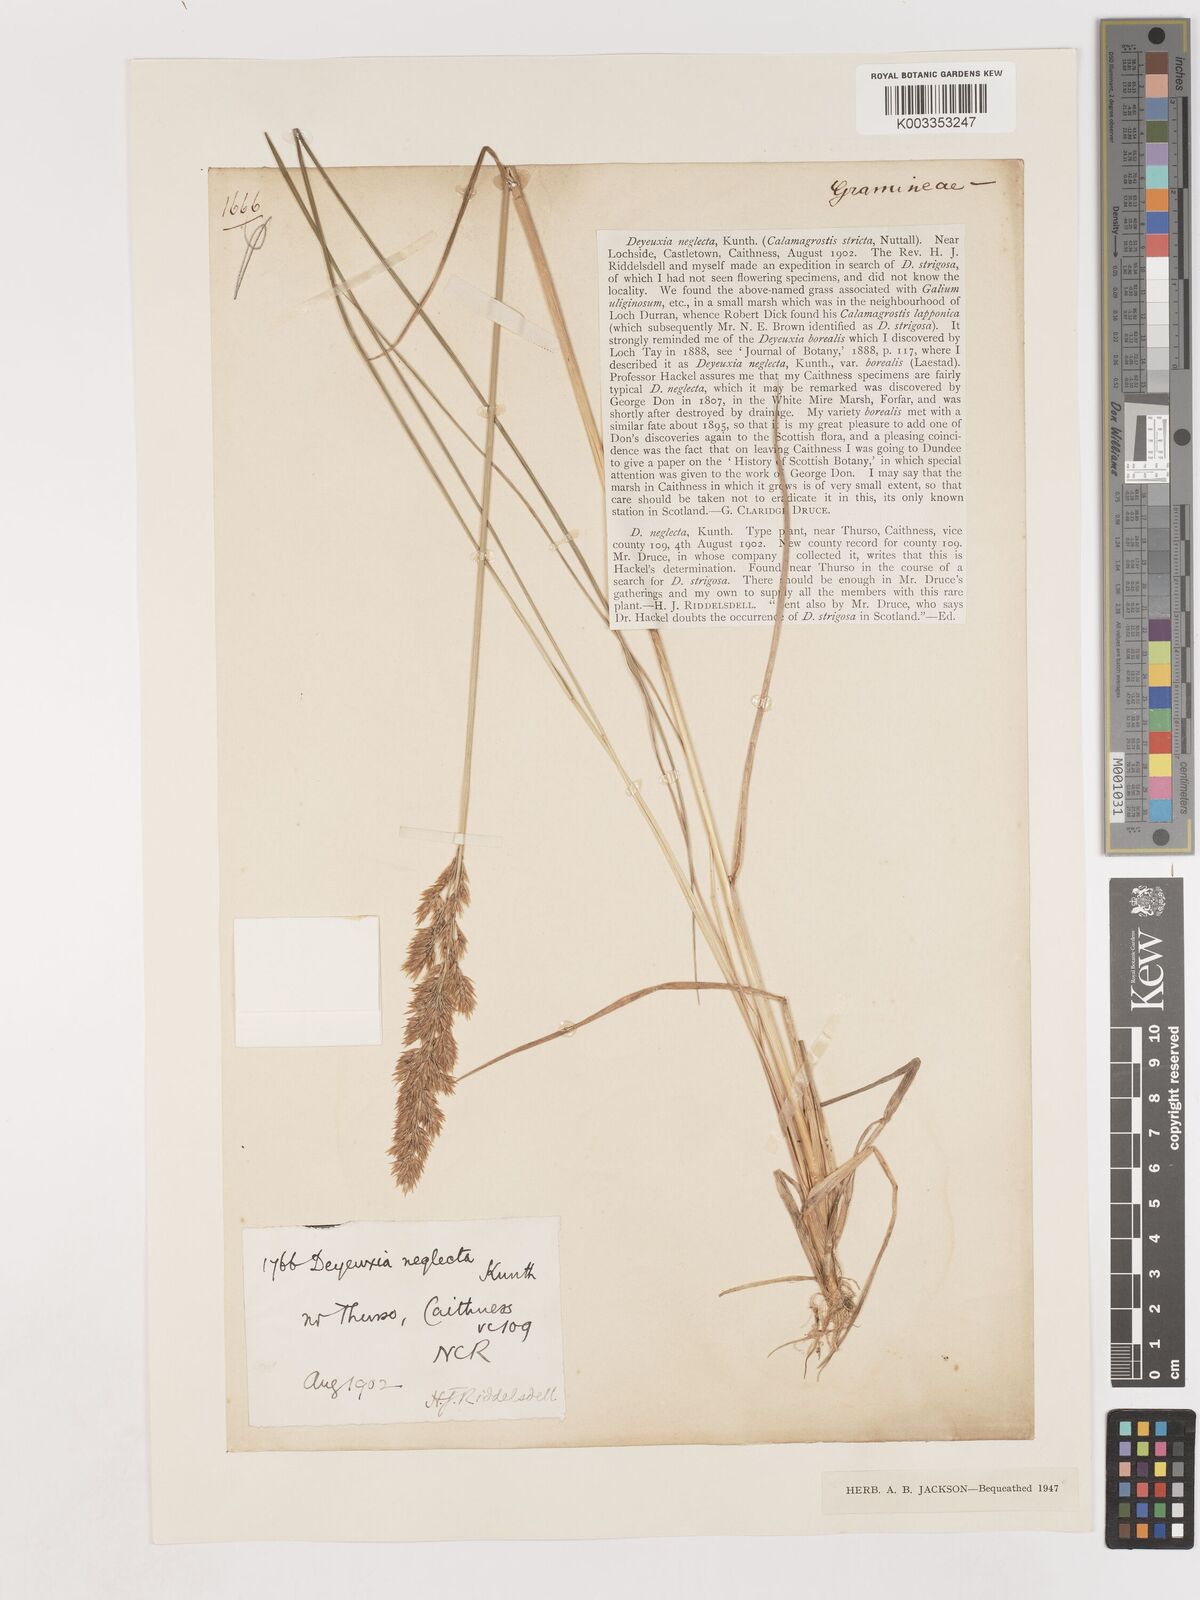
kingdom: Plantae
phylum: Tracheophyta
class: Liliopsida
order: Poales
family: Poaceae
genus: Calamagrostis
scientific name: Calamagrostis scotica
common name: Scottish small-reed
